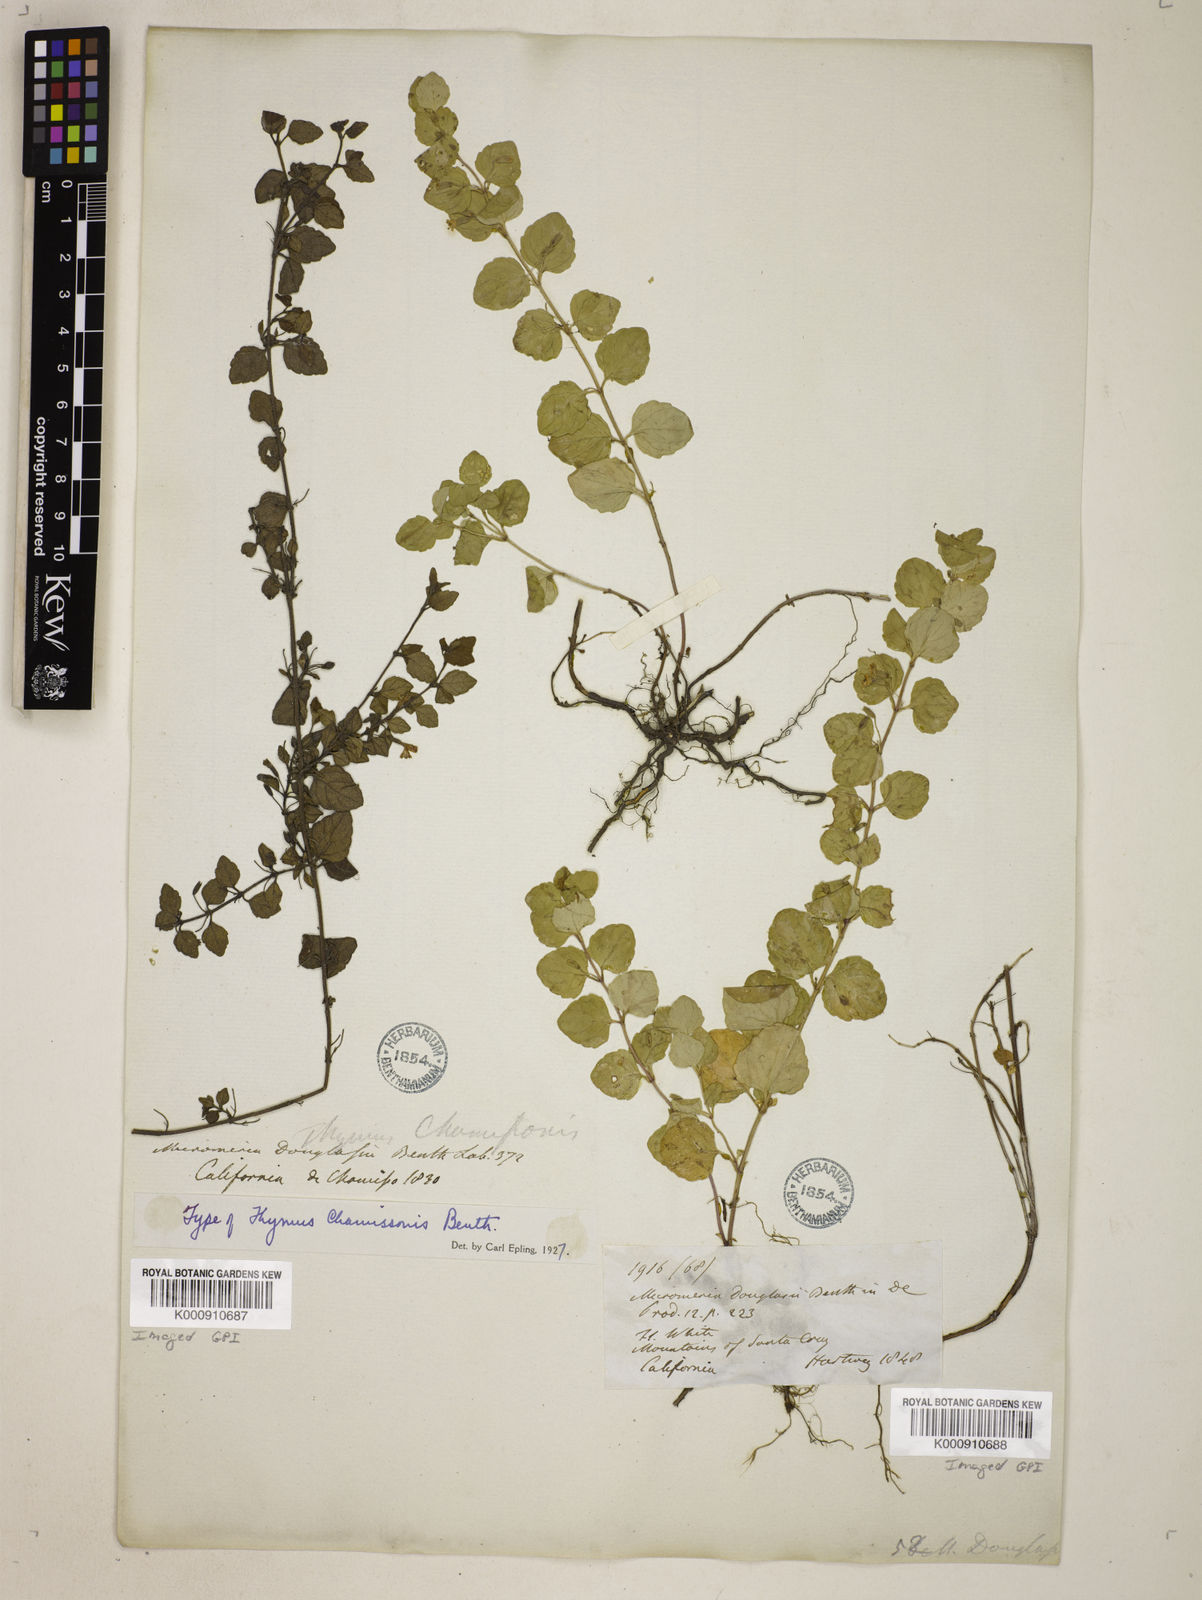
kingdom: Plantae
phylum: Tracheophyta
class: Magnoliopsida
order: Lamiales
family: Lamiaceae
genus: Micromeria
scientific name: Micromeria douglasii
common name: Yerba buena
